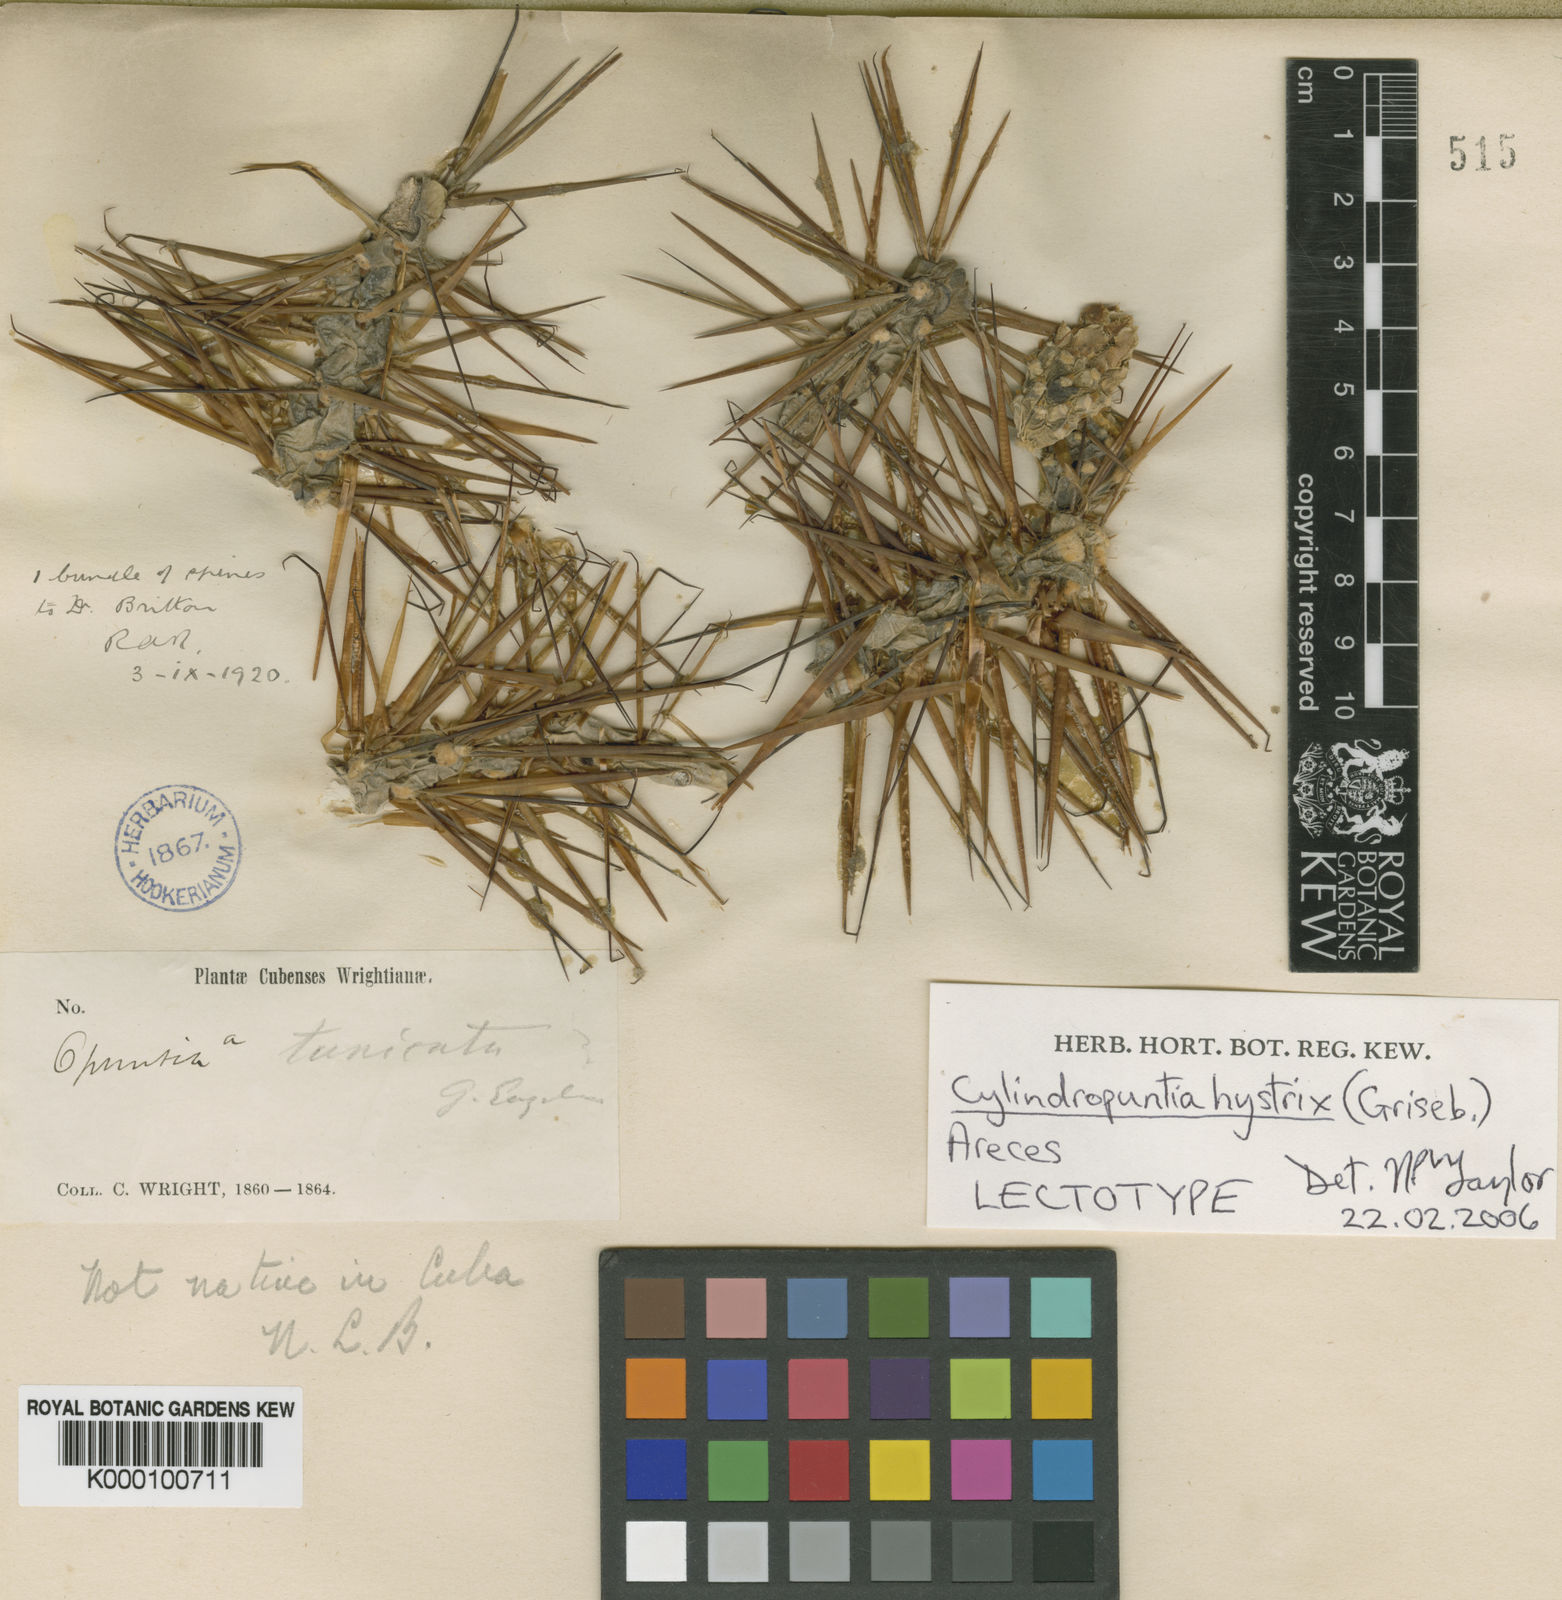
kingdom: Plantae
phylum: Tracheophyta
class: Magnoliopsida
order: Caryophyllales
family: Cactaceae
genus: Cylindropuntia
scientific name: Cylindropuntia hystrix
